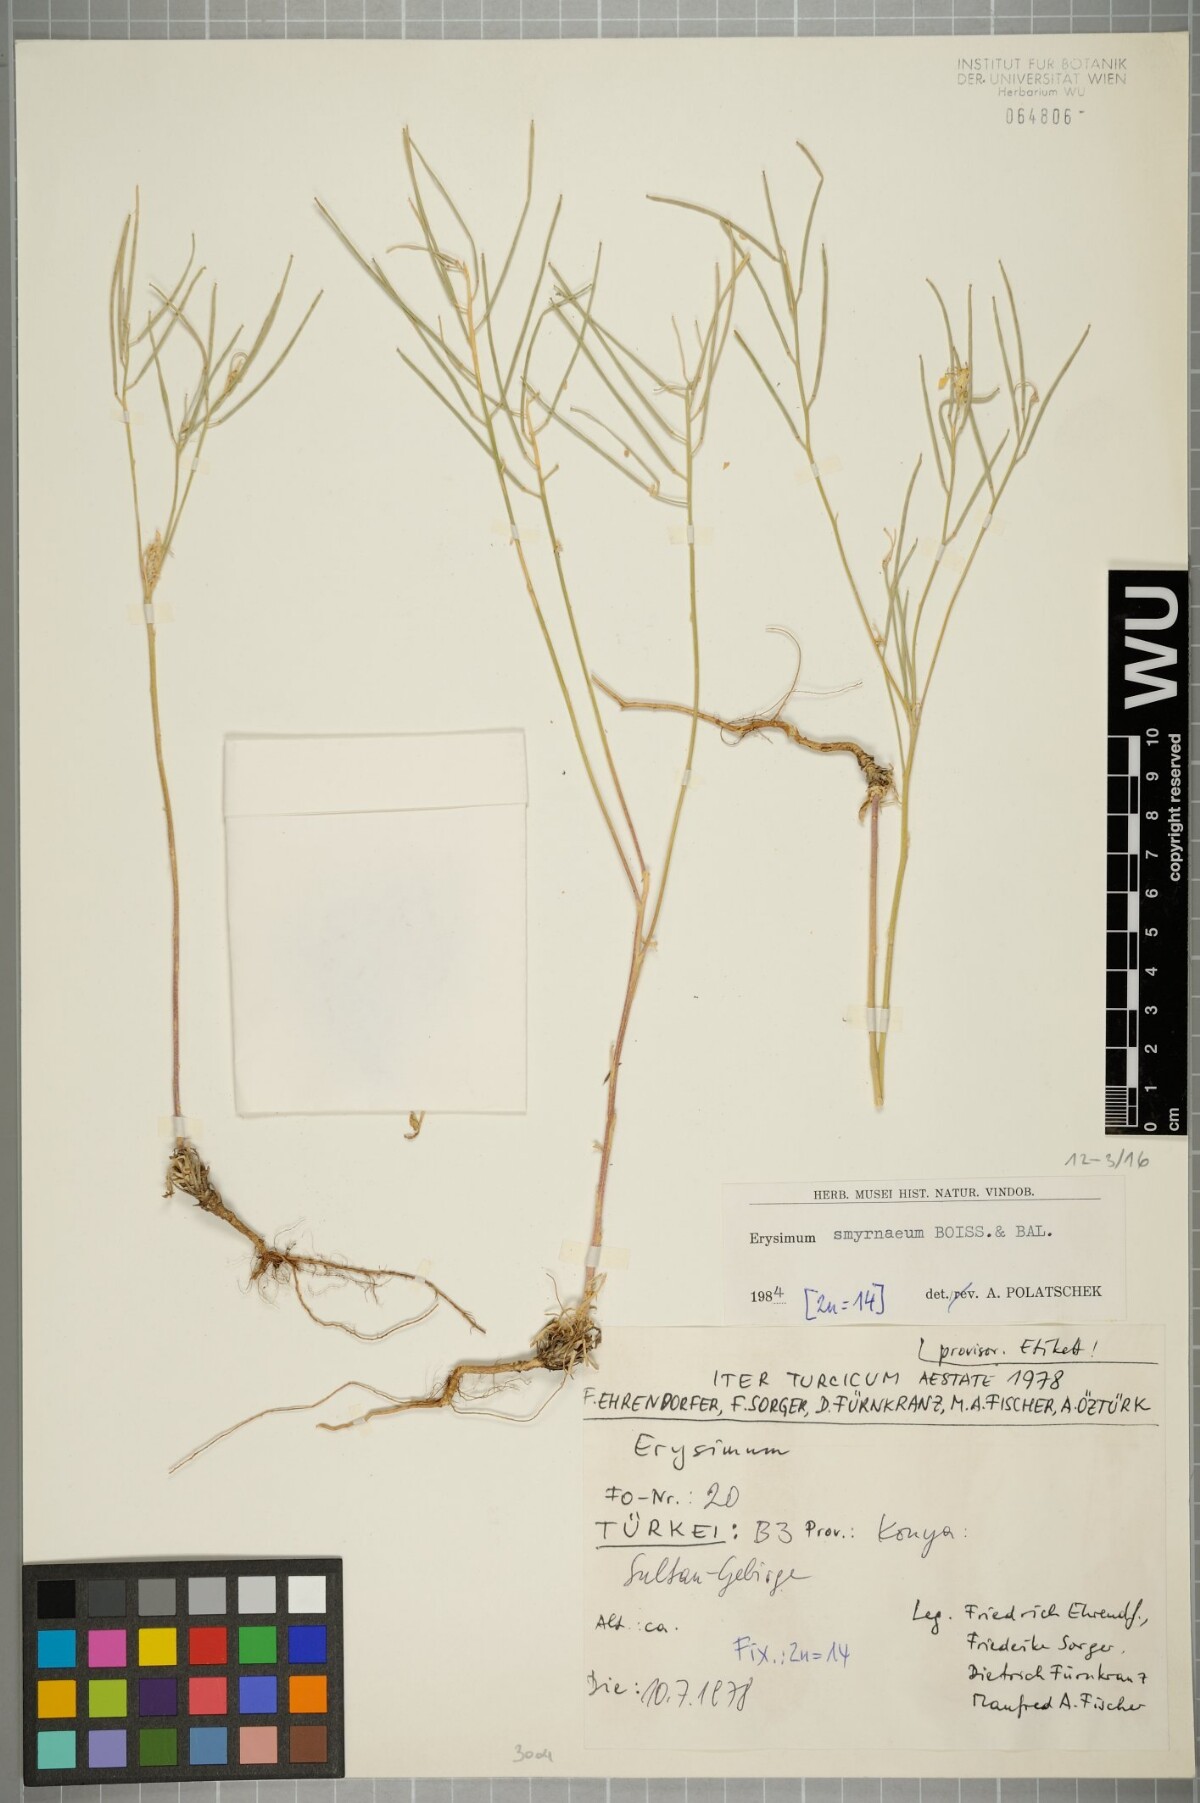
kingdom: Plantae
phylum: Tracheophyta
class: Magnoliopsida
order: Brassicales
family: Brassicaceae
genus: Erysimum
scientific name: Erysimum smyrnaeum
